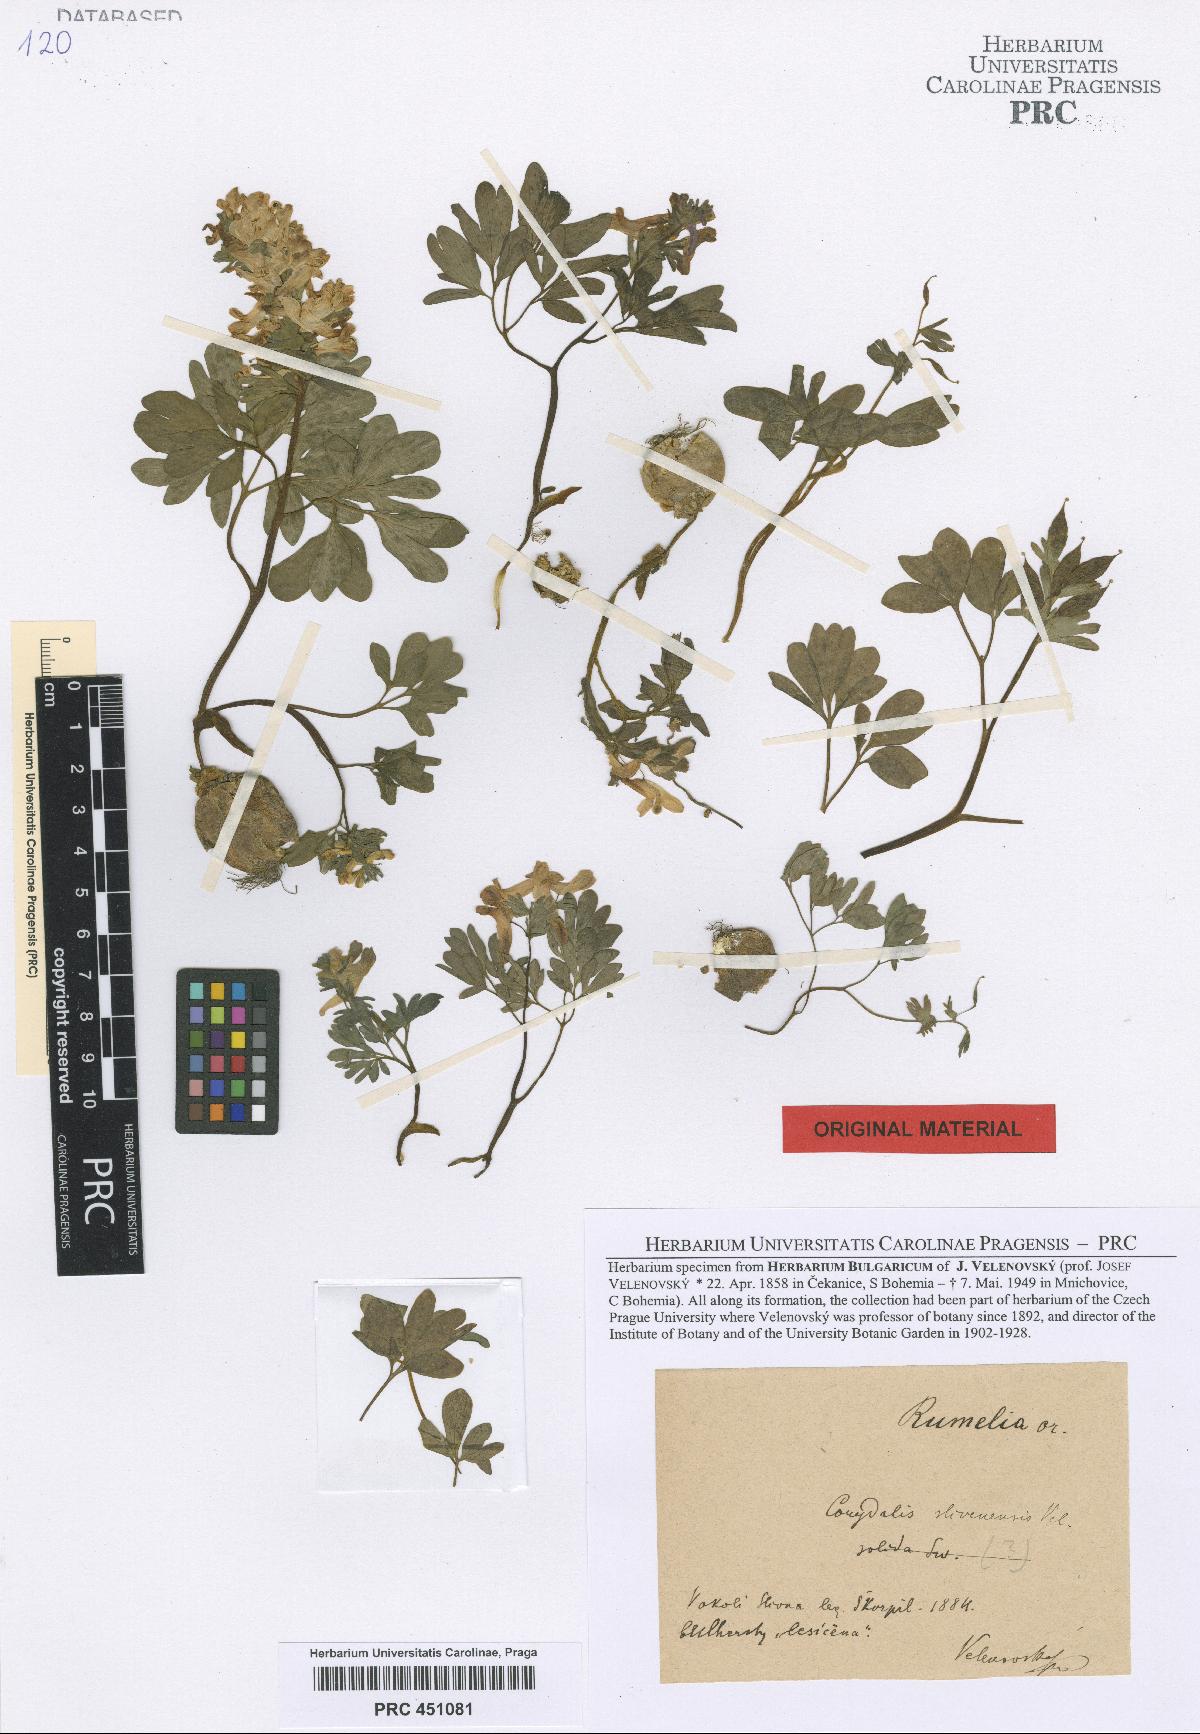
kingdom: Plantae
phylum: Tracheophyta
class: Magnoliopsida
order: Ranunculales
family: Papaveraceae
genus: Corydalis
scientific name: Corydalis solida
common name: Bird-in-a-bush
